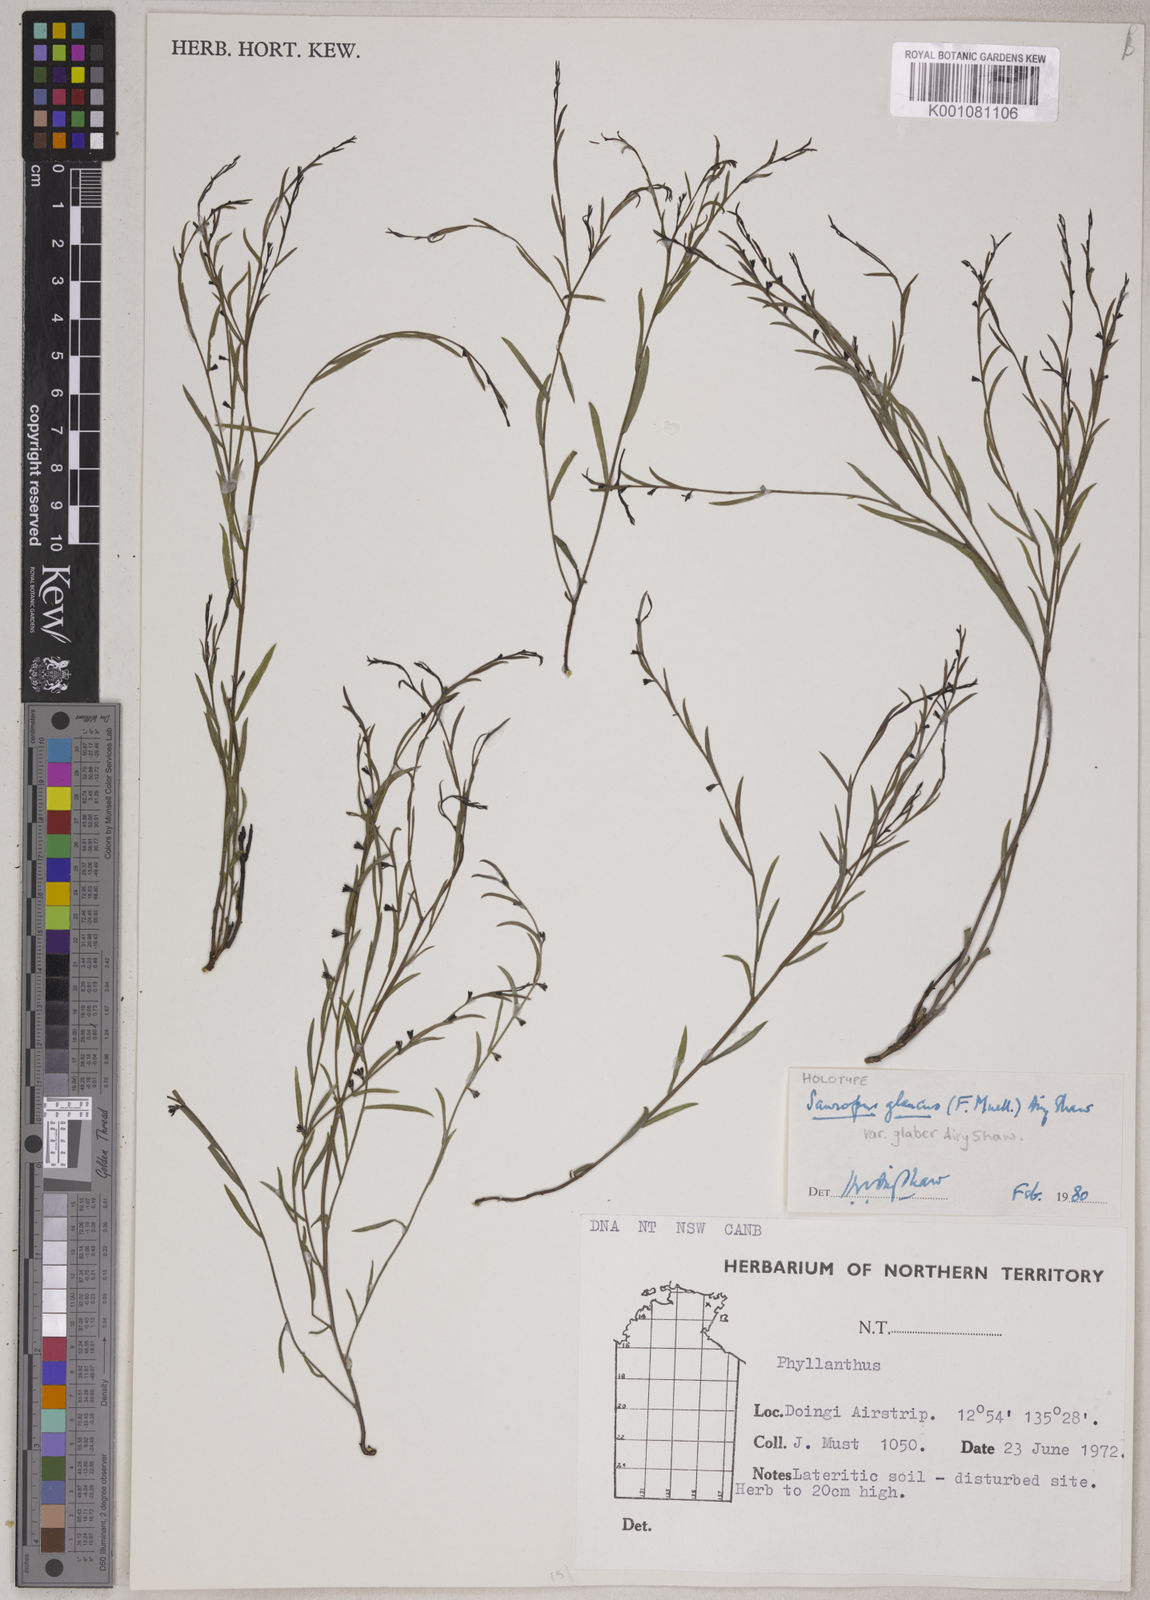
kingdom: Animalia
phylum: Chordata
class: Amphibia
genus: Sauropus
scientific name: Sauropus
